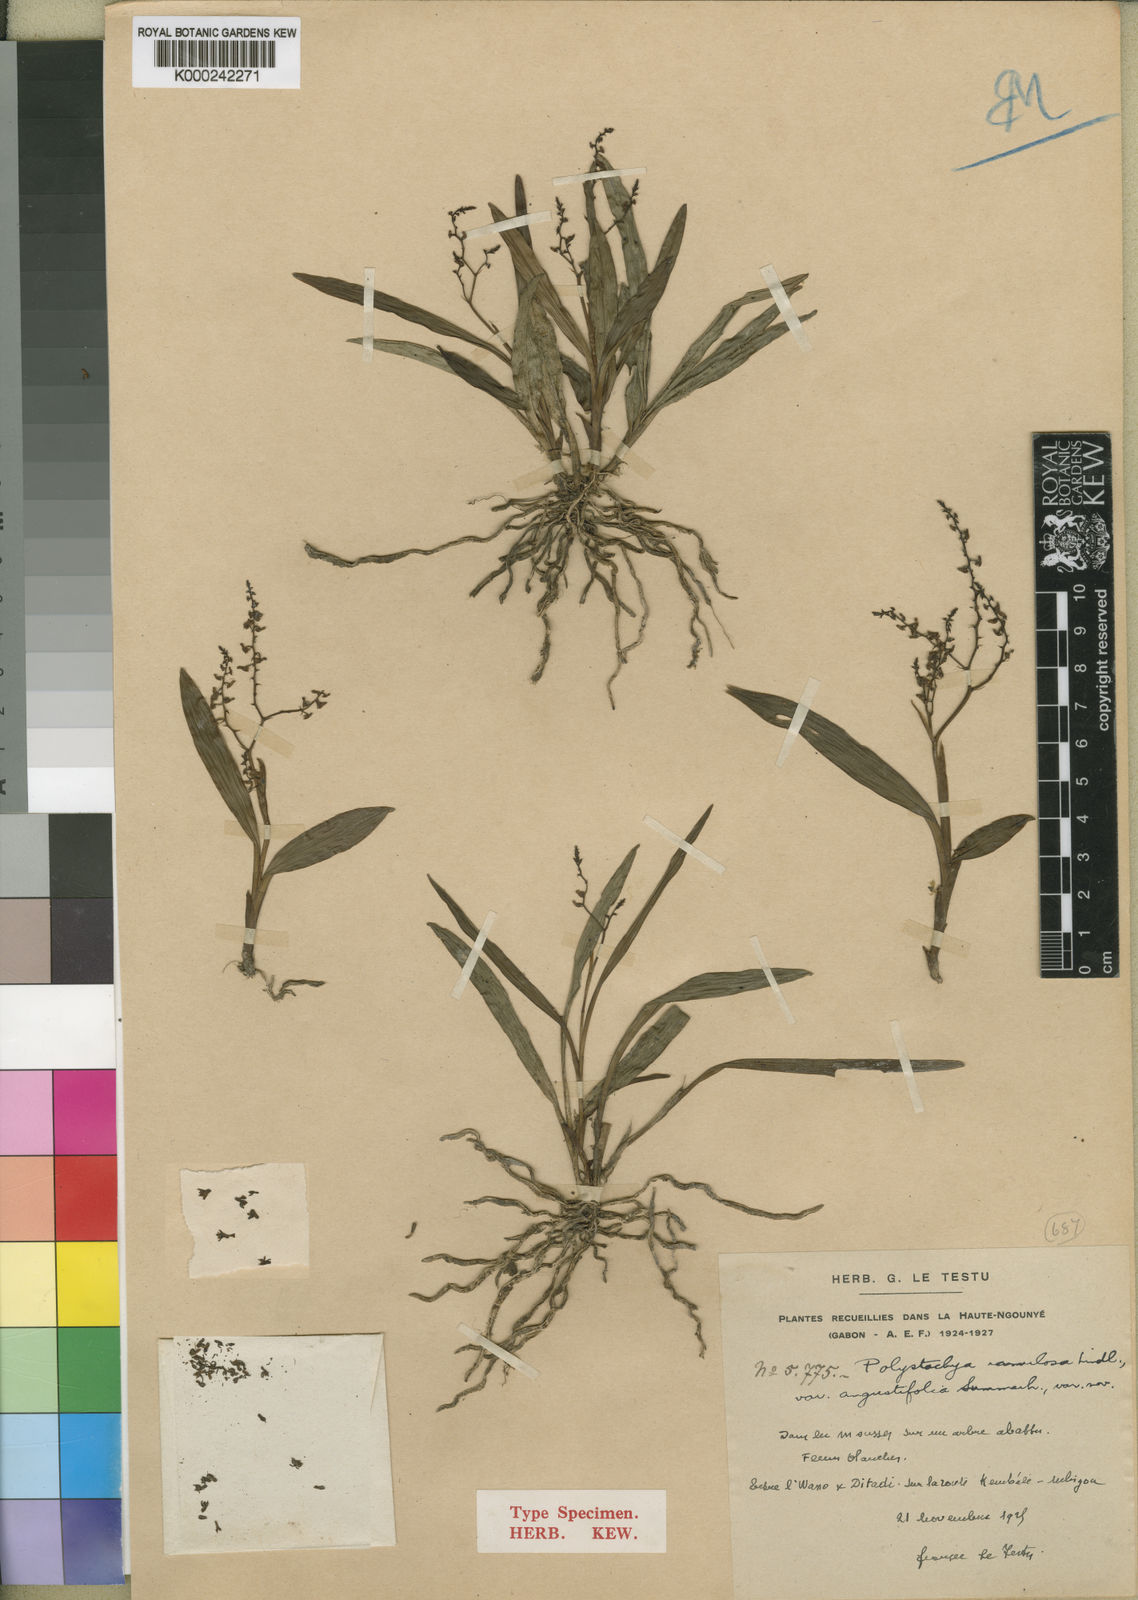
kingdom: Plantae
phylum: Tracheophyta
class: Liliopsida
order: Asparagales
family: Orchidaceae
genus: Polystachya
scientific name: Polystachya ramulosa
